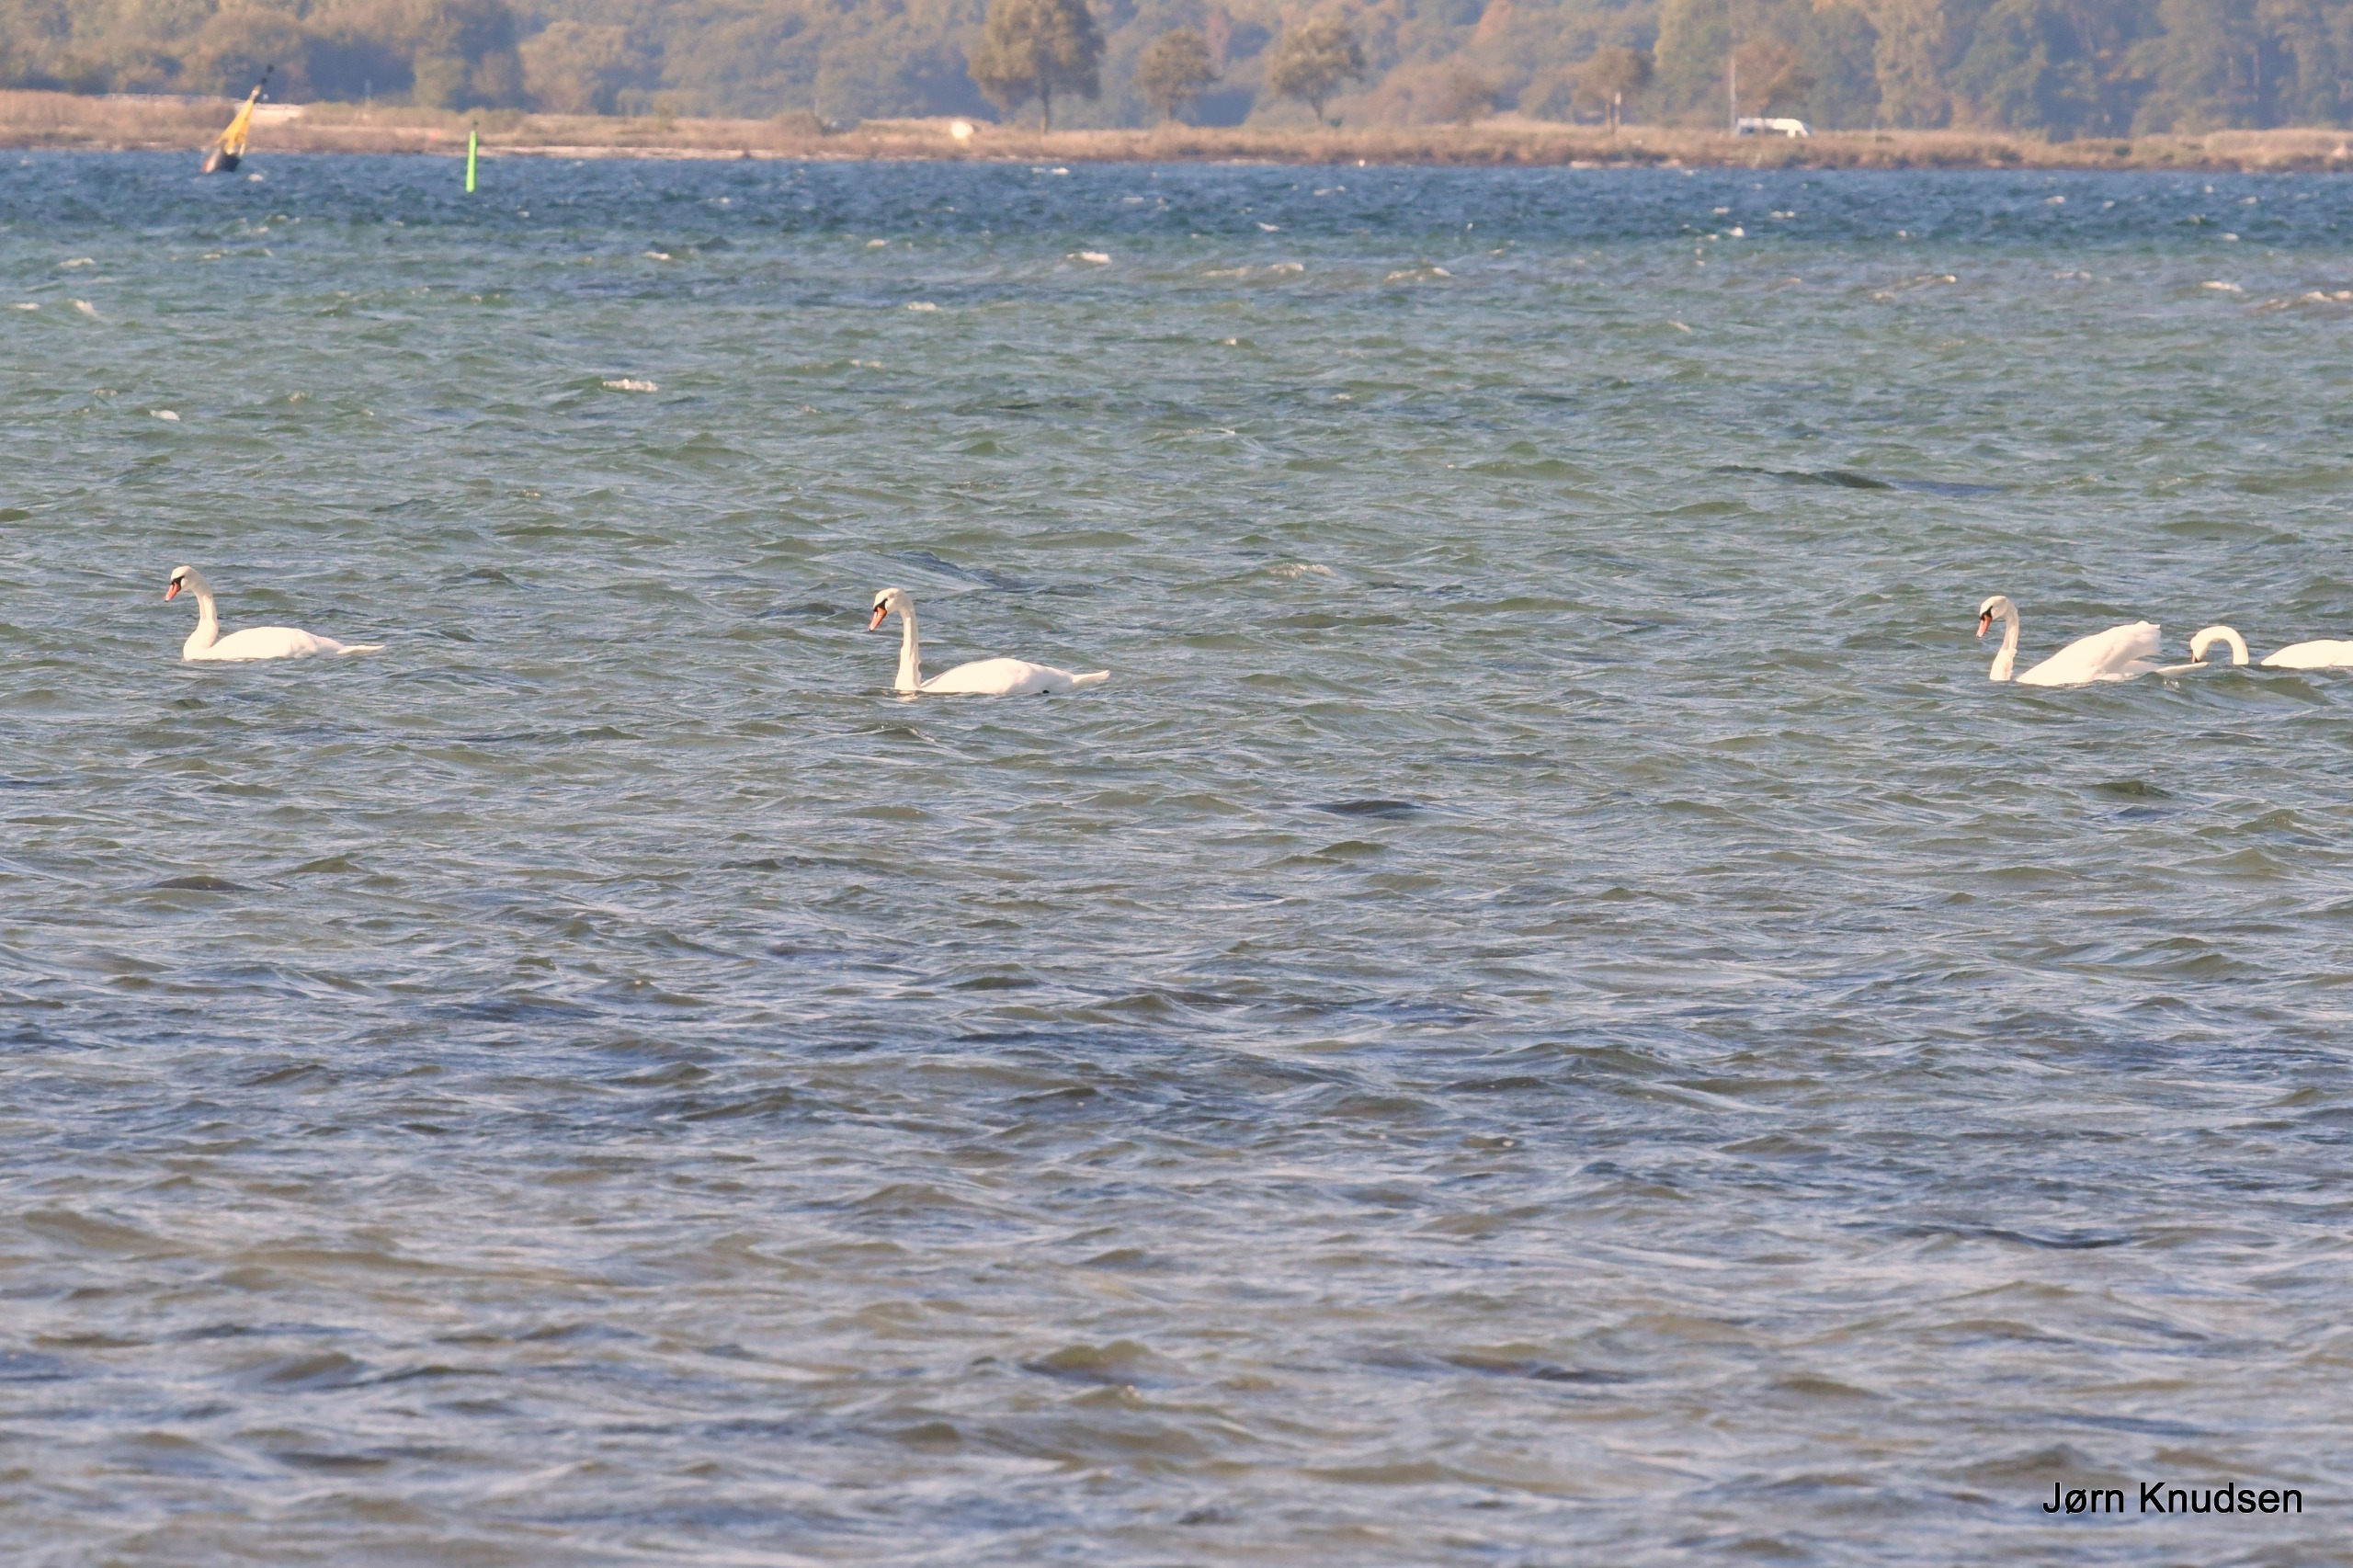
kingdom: Animalia
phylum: Chordata
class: Aves
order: Anseriformes
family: Anatidae
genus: Cygnus
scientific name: Cygnus olor
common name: Knopsvane
